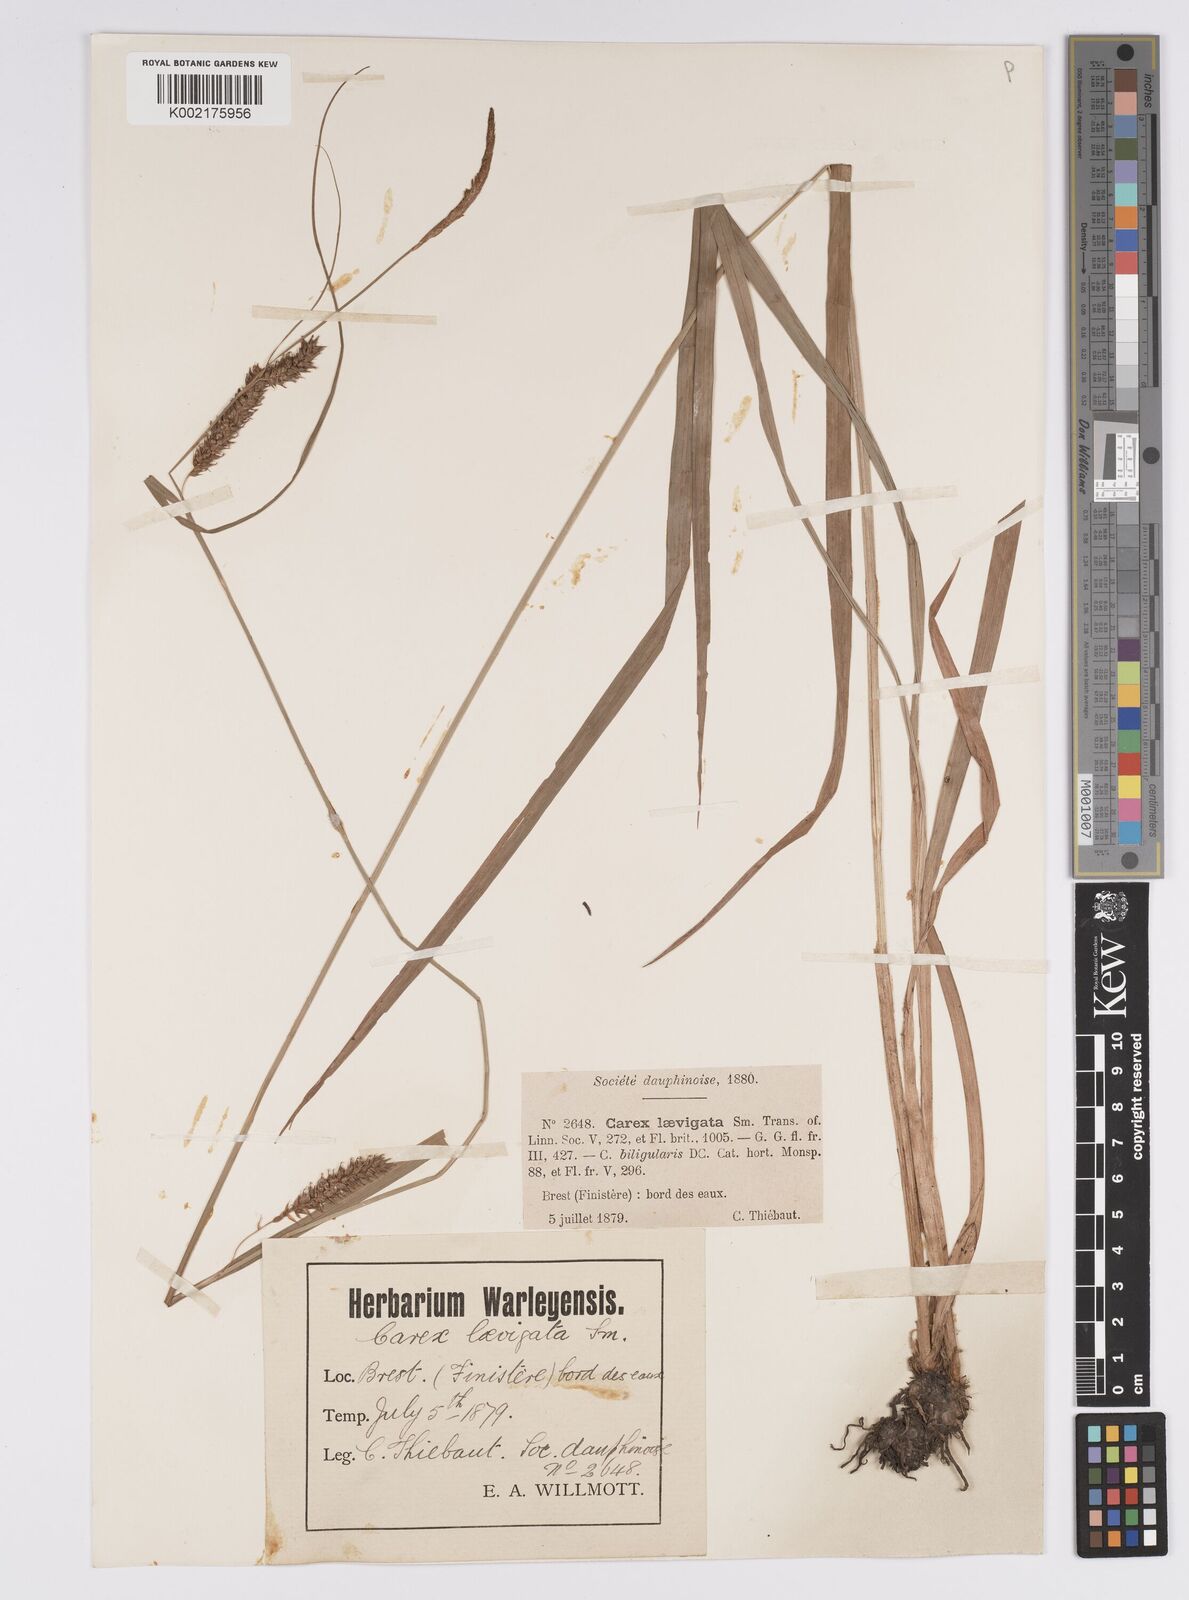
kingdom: Plantae
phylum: Tracheophyta
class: Liliopsida
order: Poales
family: Cyperaceae
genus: Carex
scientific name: Carex laevigata
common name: Smooth-stalked sedge
